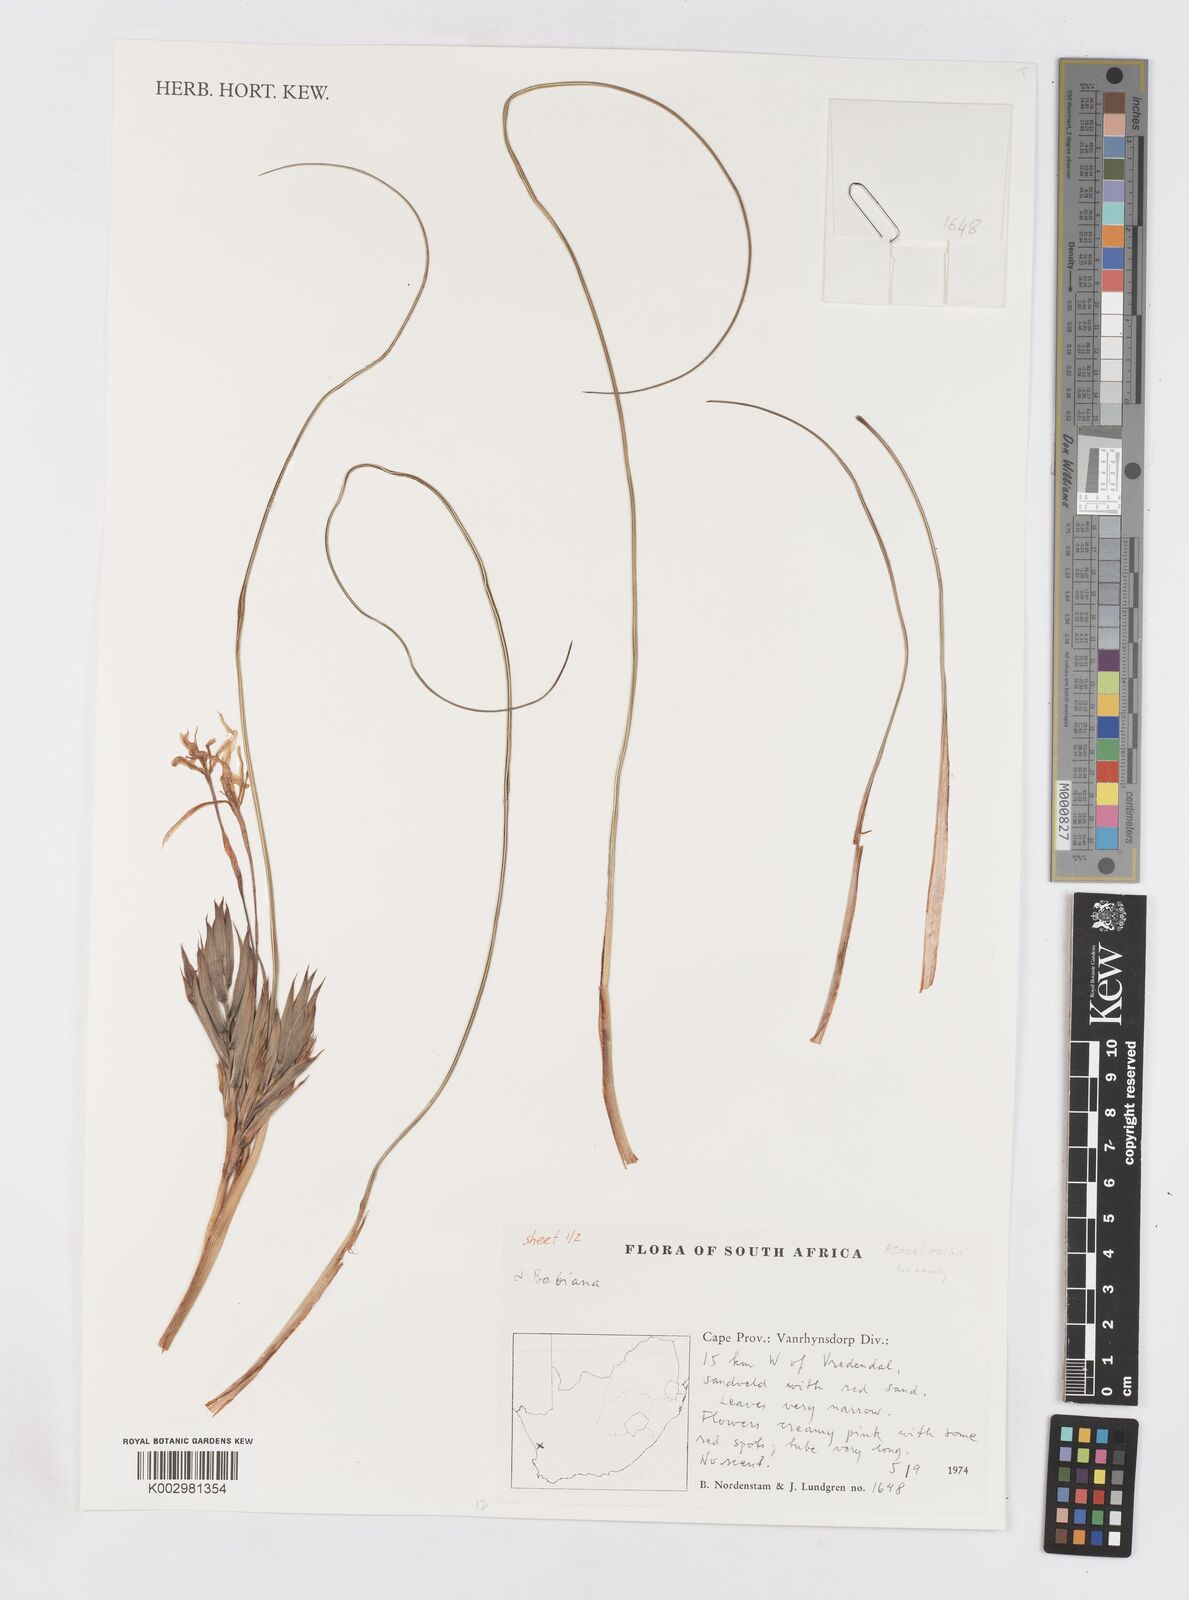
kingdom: Plantae
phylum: Tracheophyta
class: Liliopsida
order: Asparagales
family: Iridaceae
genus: Babiana
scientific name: Babiana
